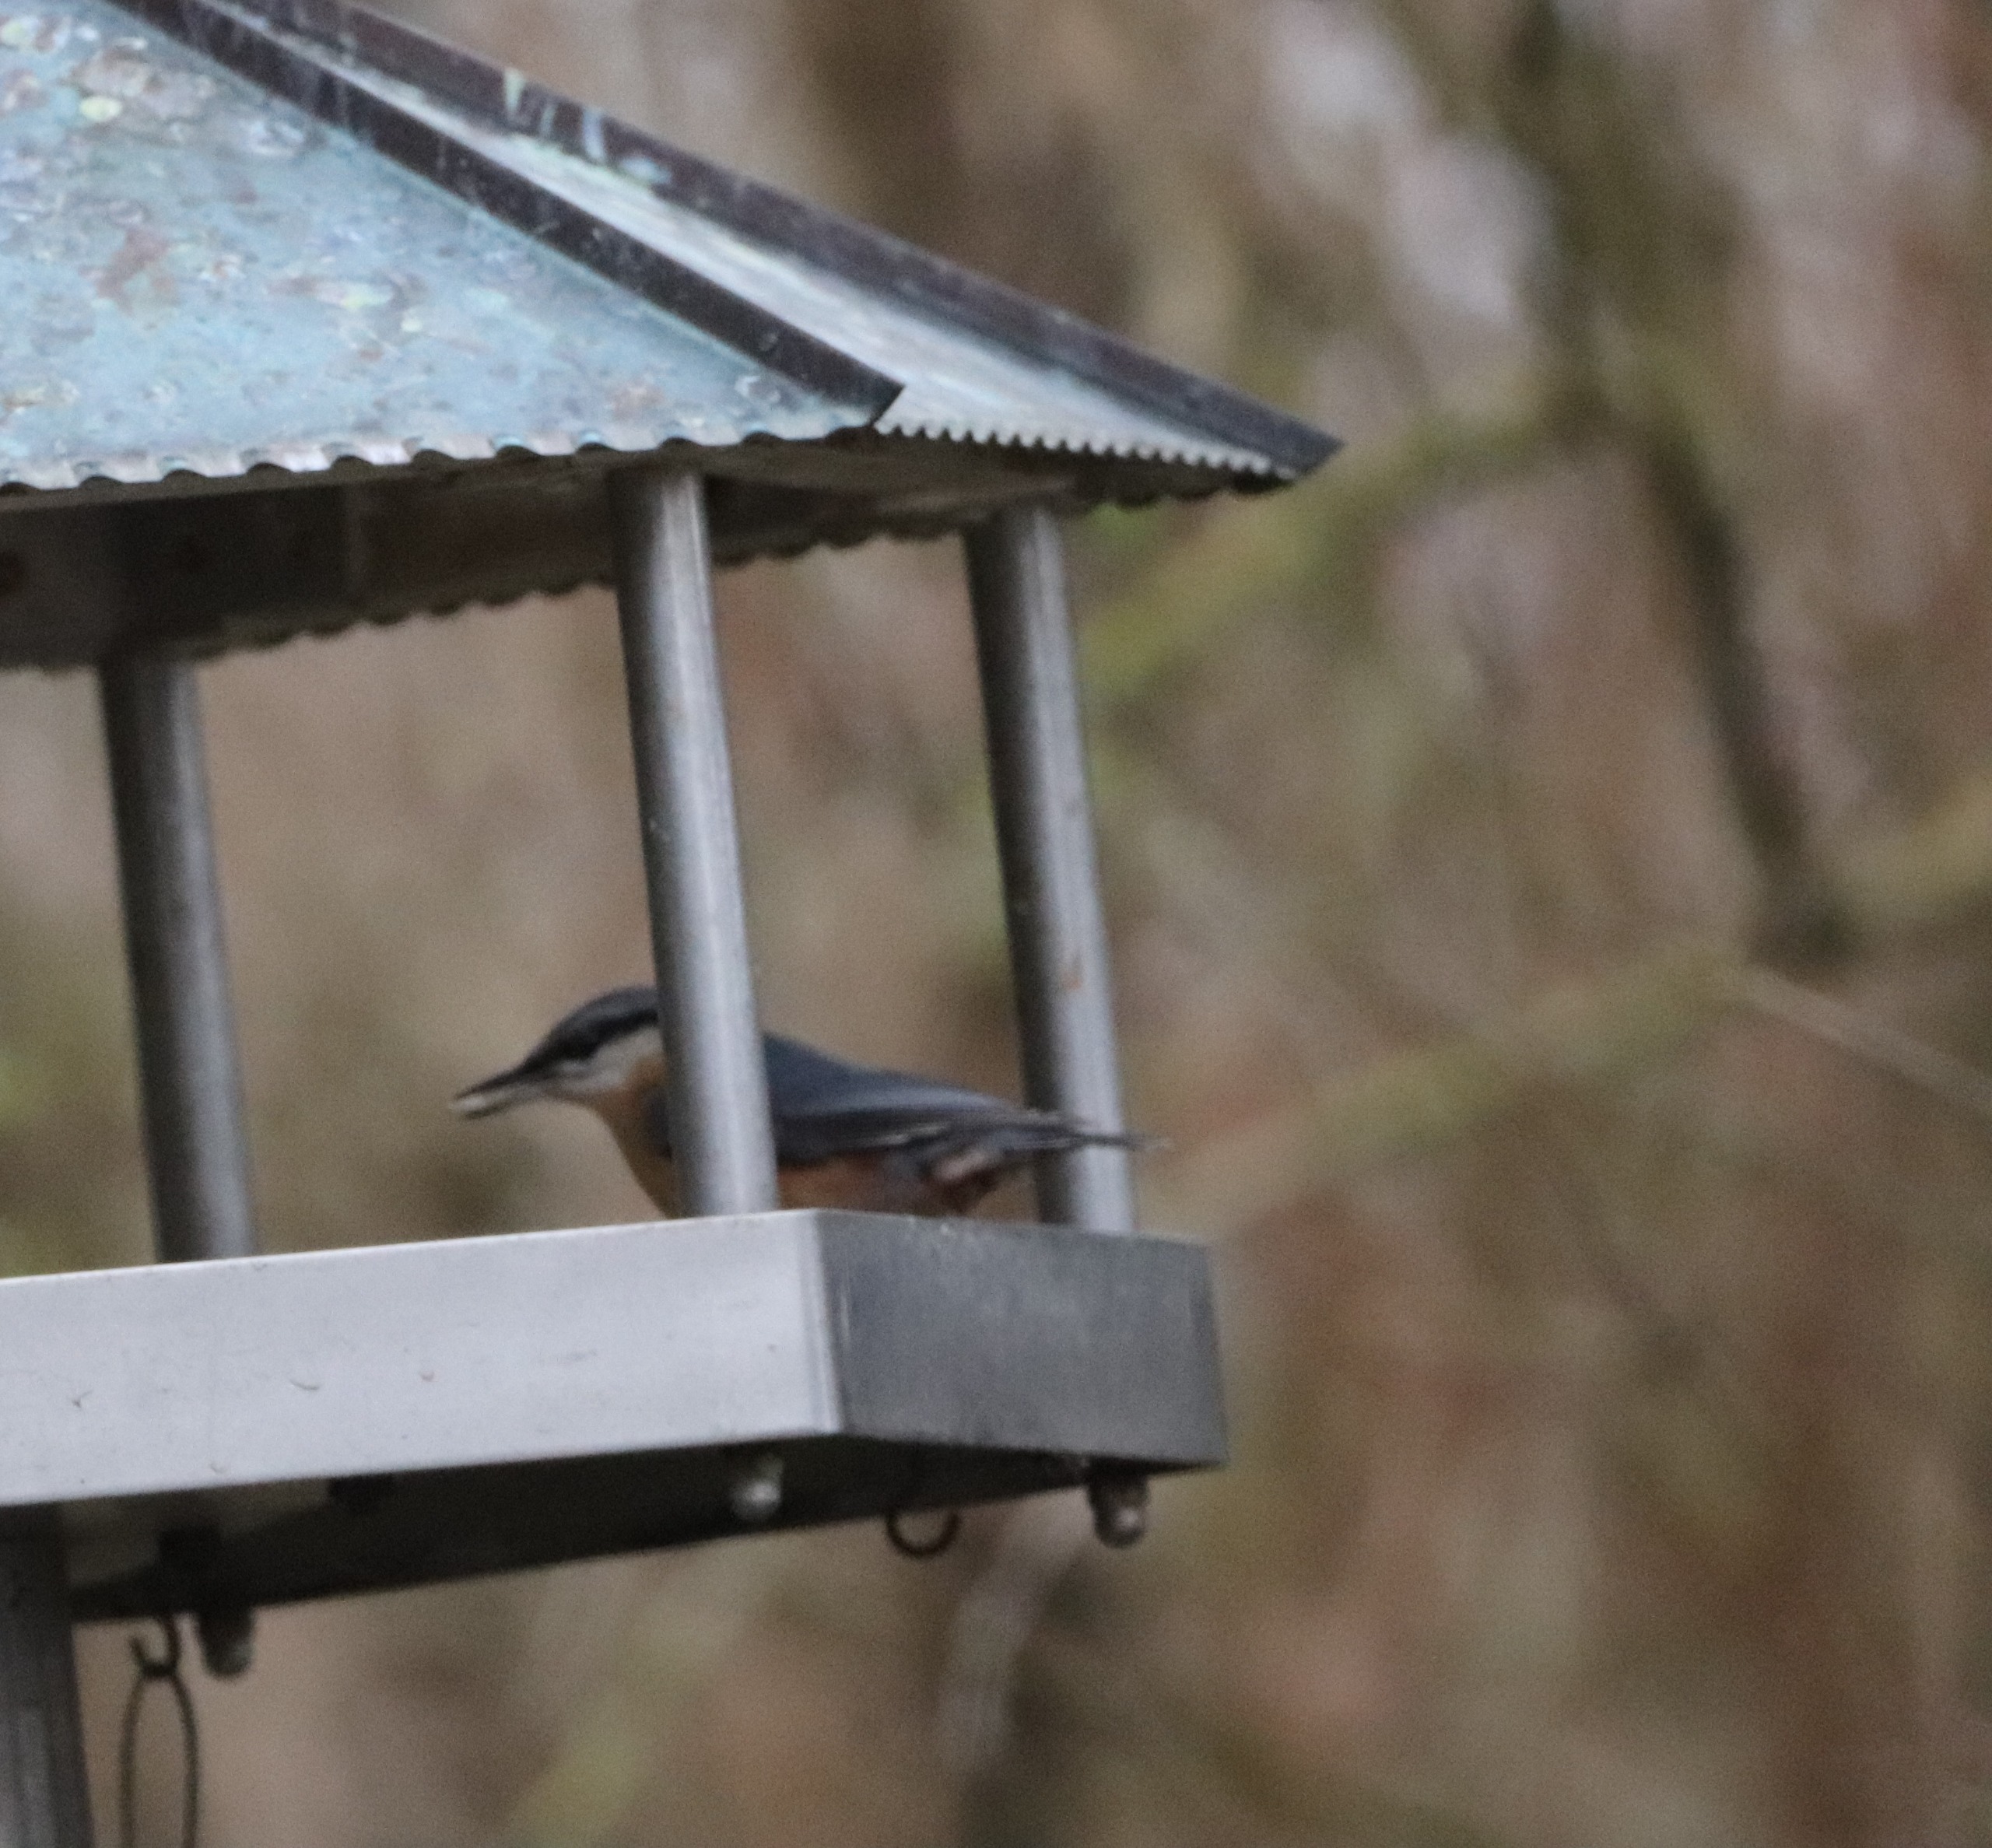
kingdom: Animalia
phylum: Chordata
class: Aves
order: Passeriformes
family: Sittidae
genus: Sitta
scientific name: Sitta europaea
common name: Spætmejse
